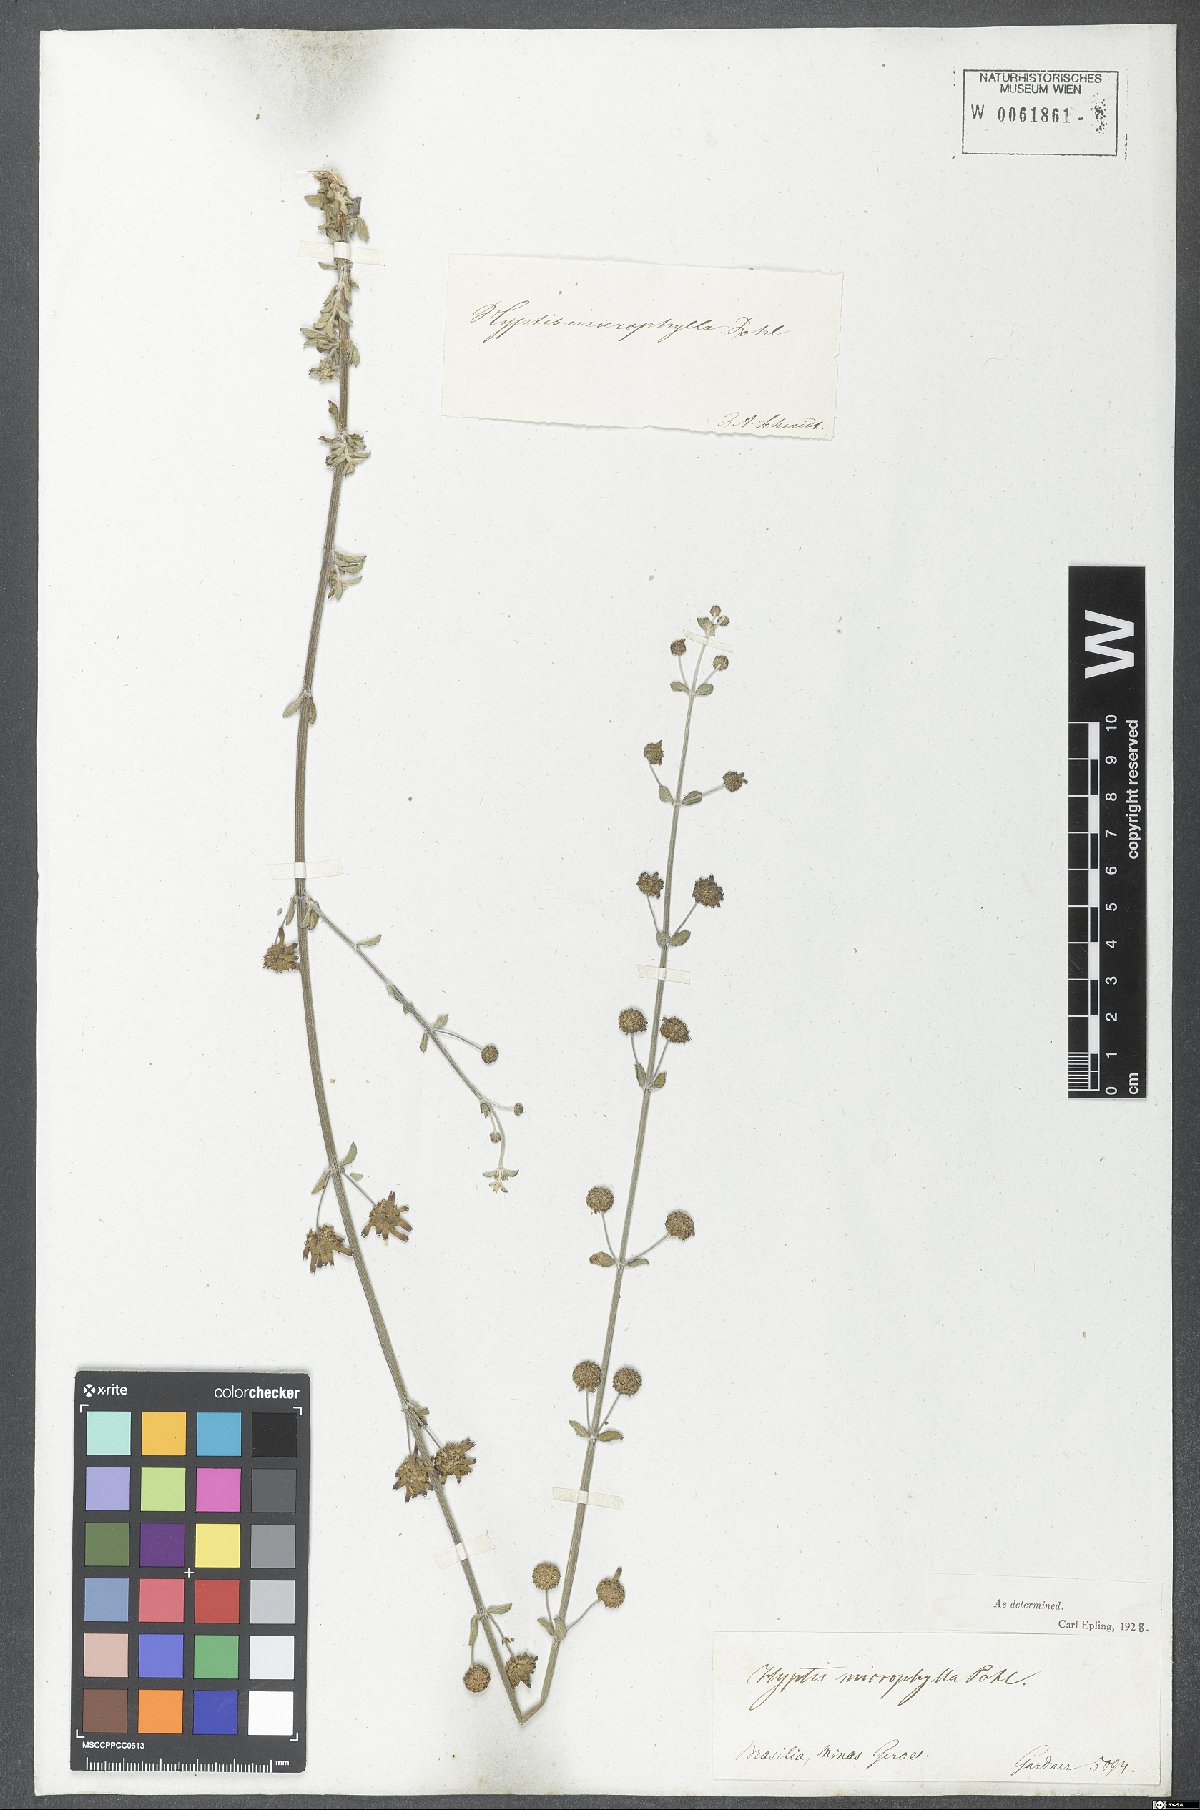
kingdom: Plantae
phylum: Tracheophyta
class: Magnoliopsida
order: Lamiales
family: Lamiaceae
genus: Hyptis
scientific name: Hyptis microphylla
